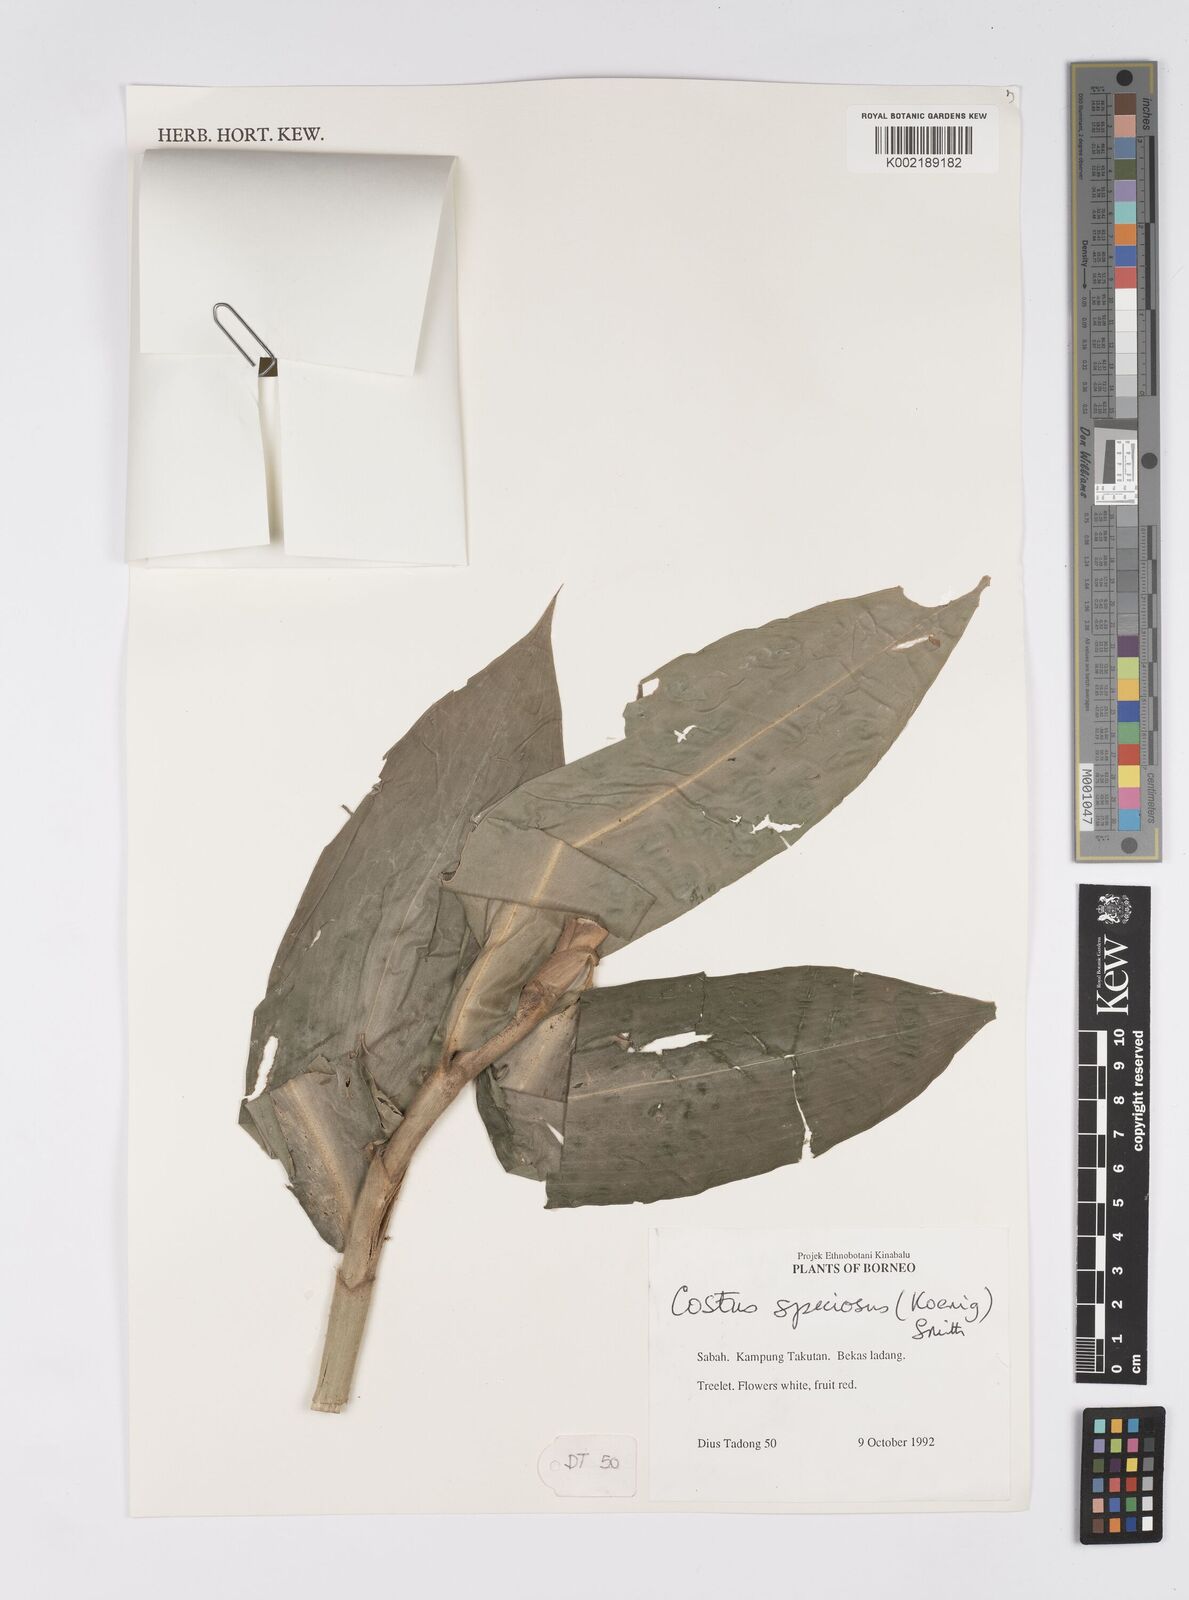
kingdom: Plantae
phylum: Tracheophyta
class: Liliopsida
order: Zingiberales
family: Costaceae
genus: Hellenia
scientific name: Hellenia speciosa
